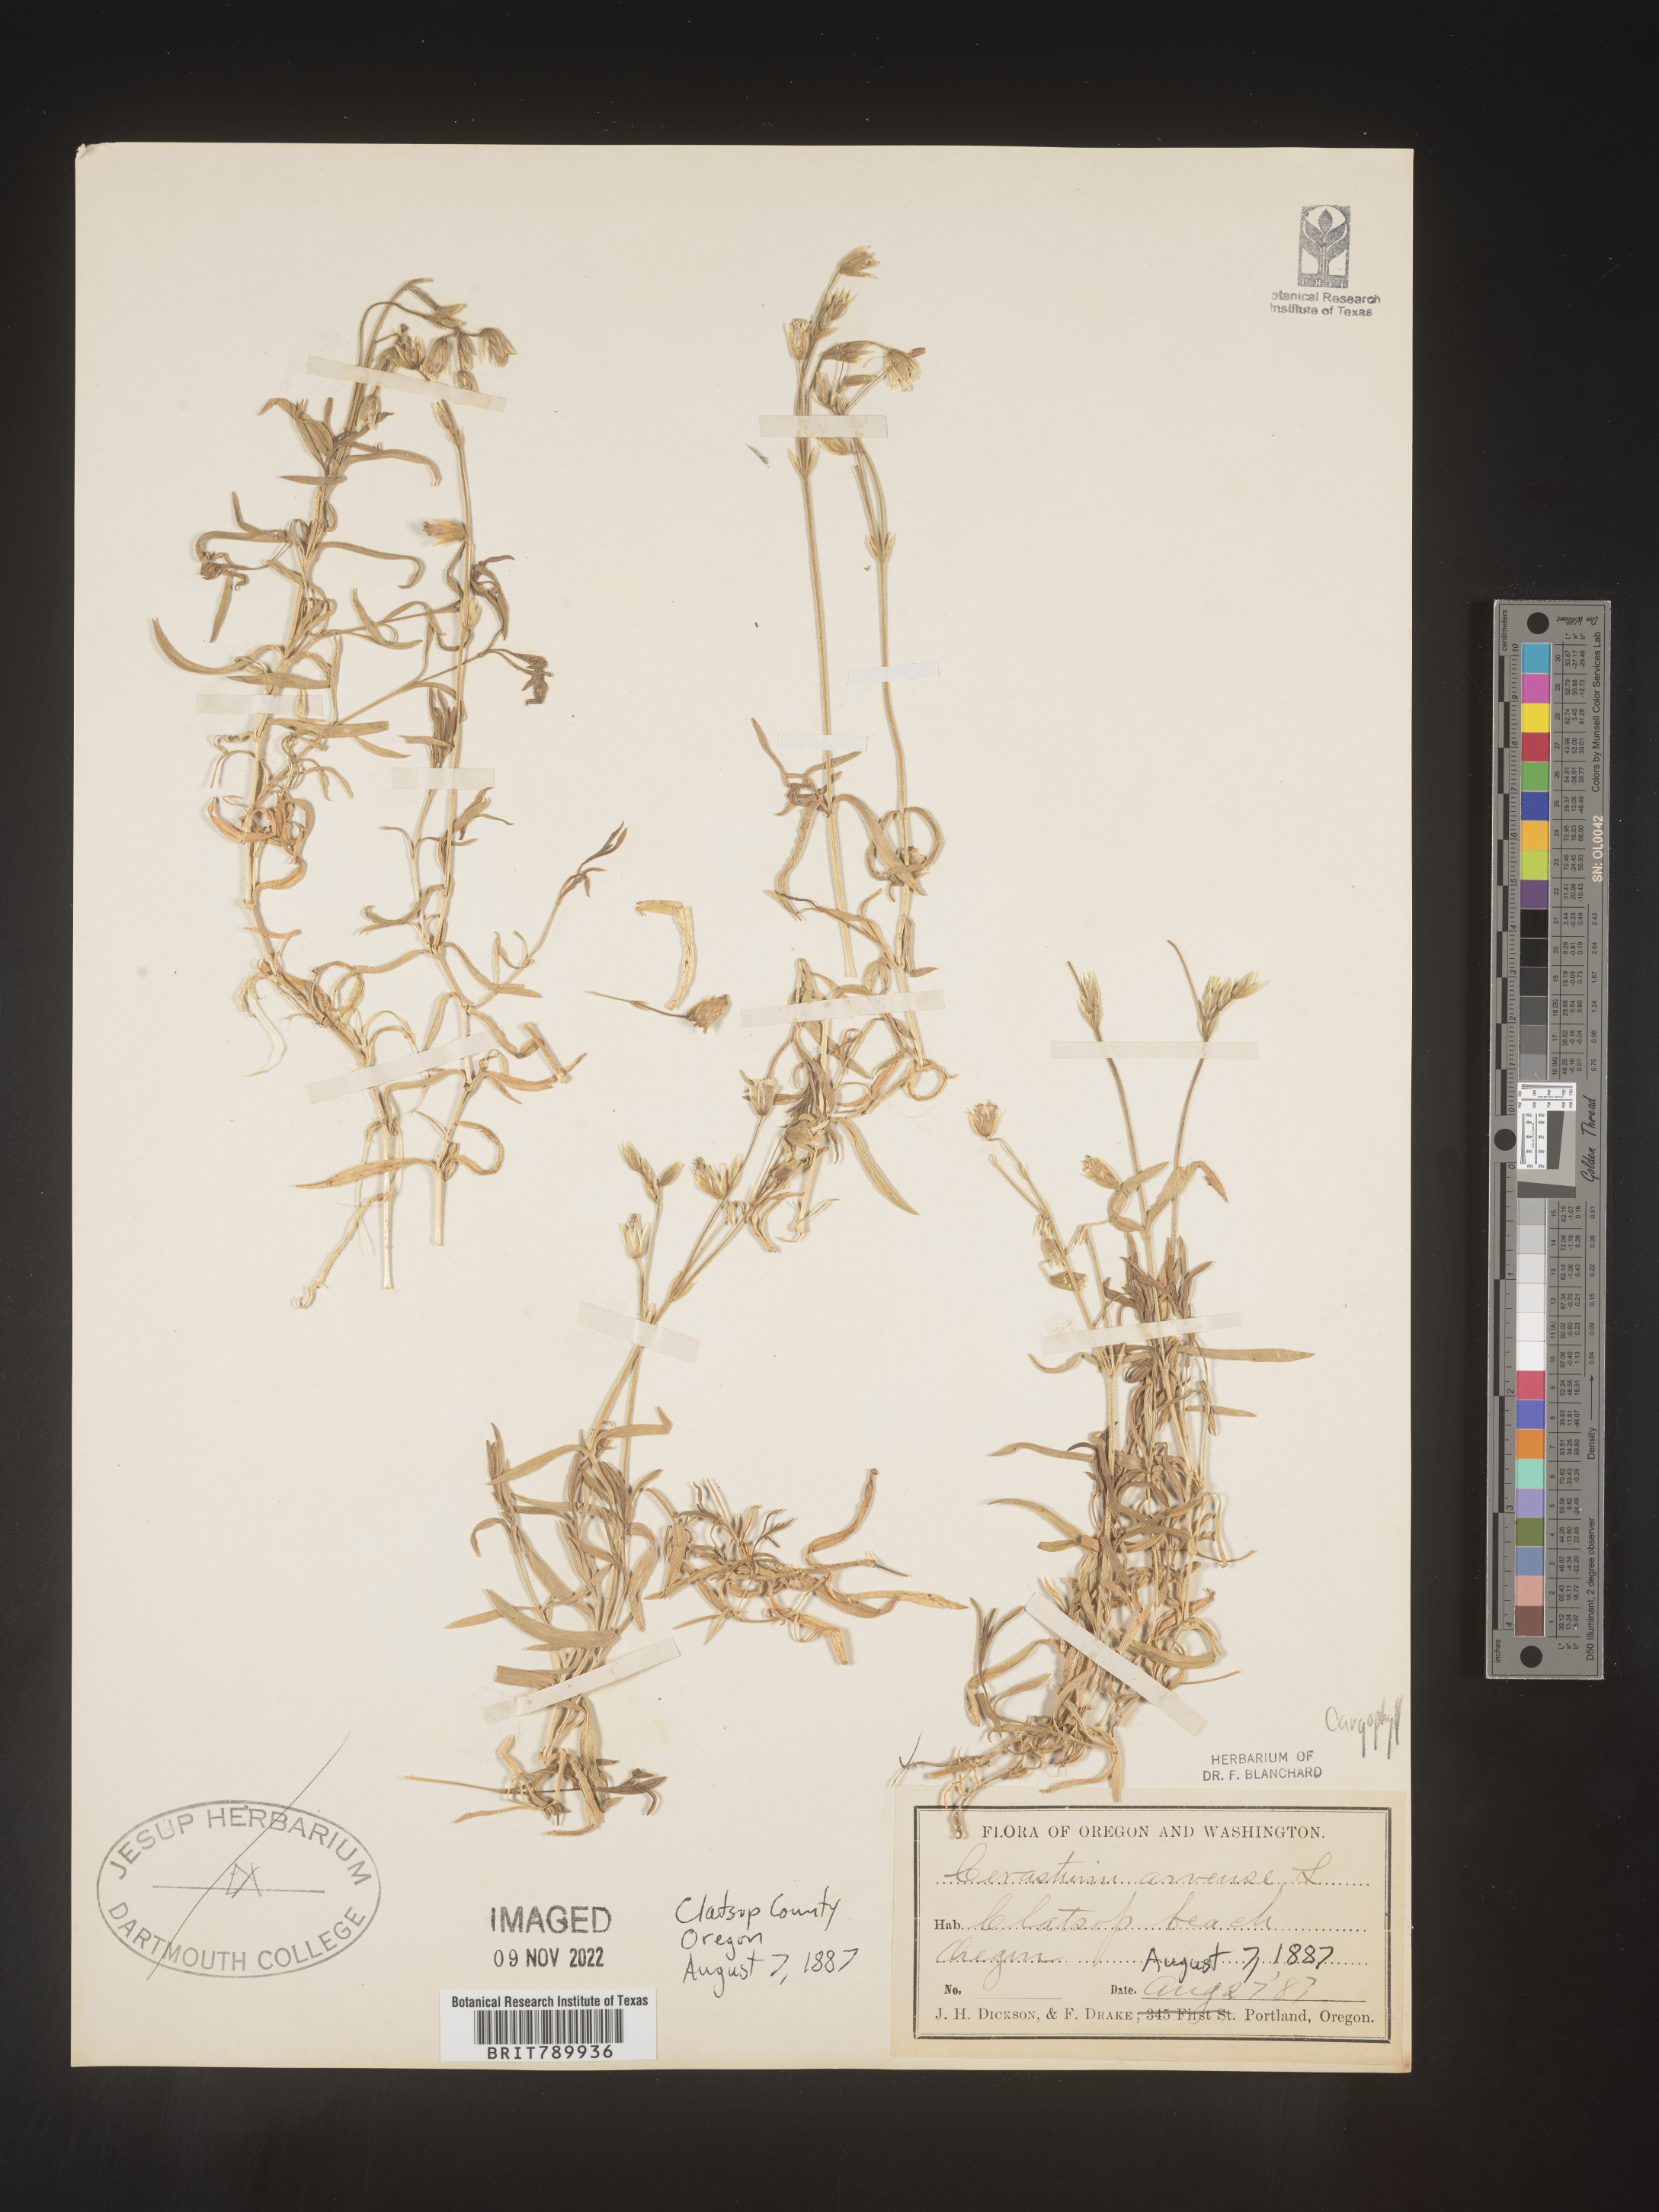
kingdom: Plantae
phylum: Tracheophyta
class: Magnoliopsida
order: Caryophyllales
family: Caryophyllaceae
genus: Cerastium
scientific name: Cerastium arvense
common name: Field mouse-ear
